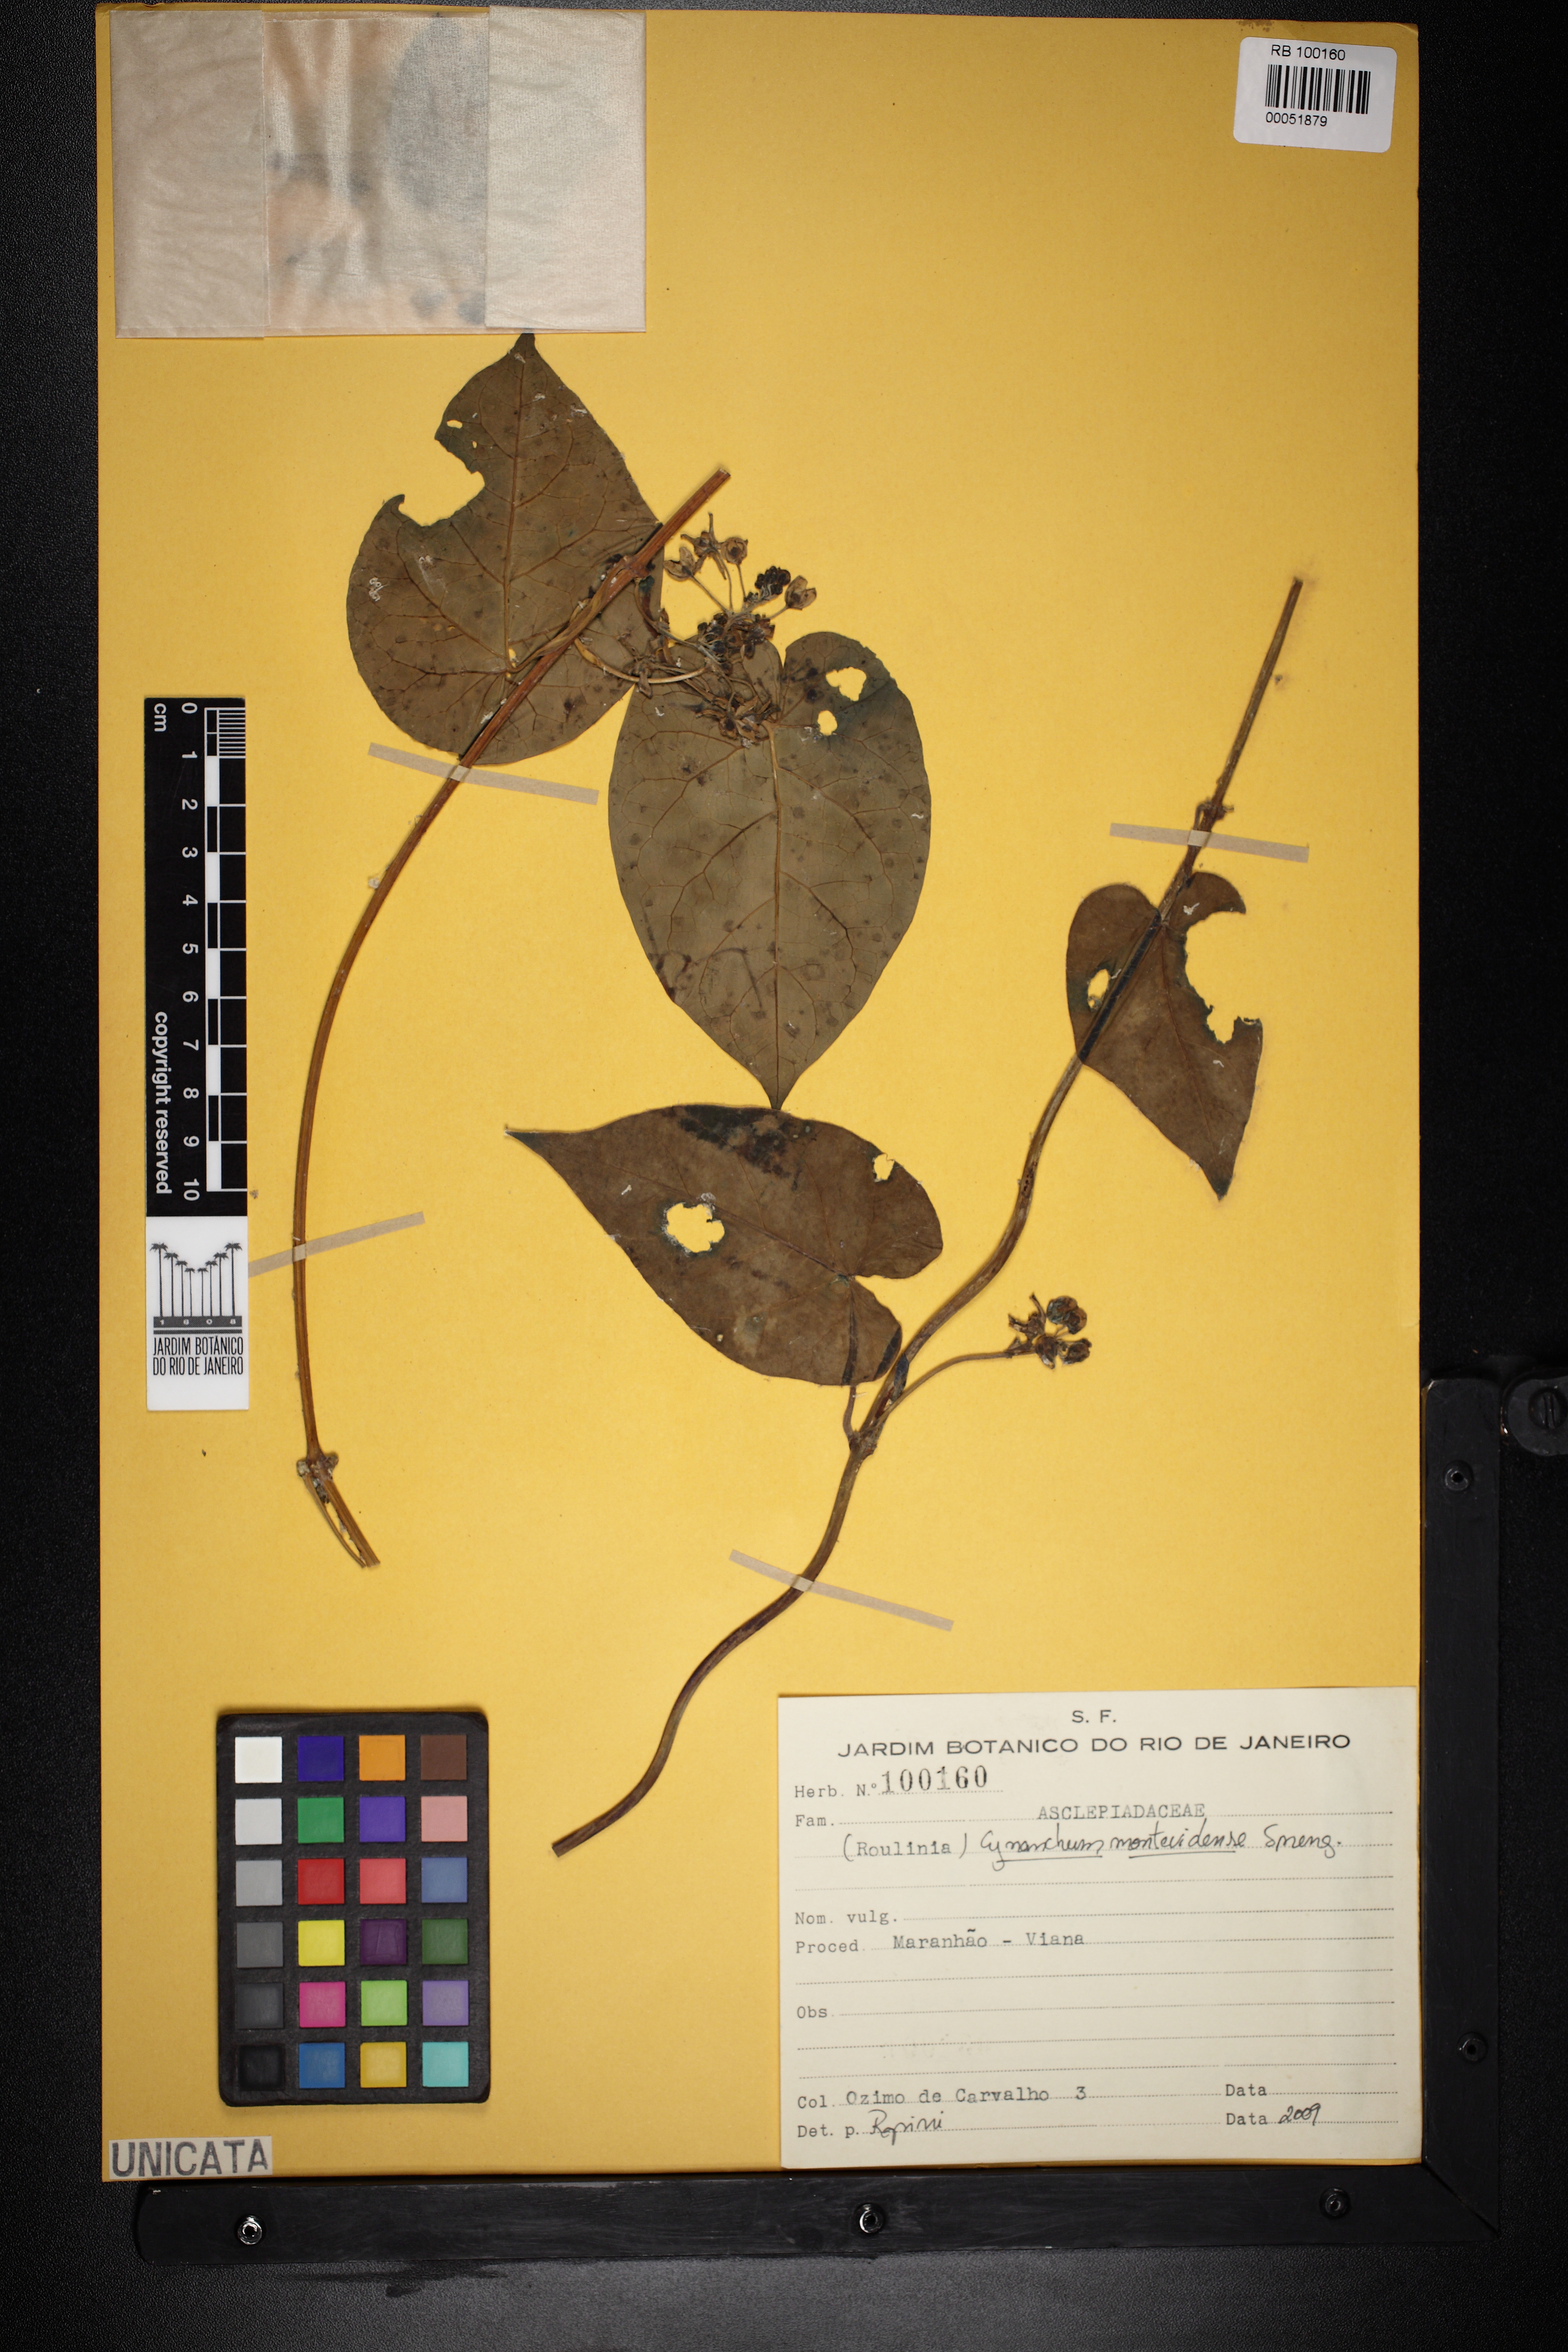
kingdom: Plantae
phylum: Tracheophyta
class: Magnoliopsida
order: Gentianales
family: Apocynaceae
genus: Cynanchum
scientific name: Cynanchum montevidense
